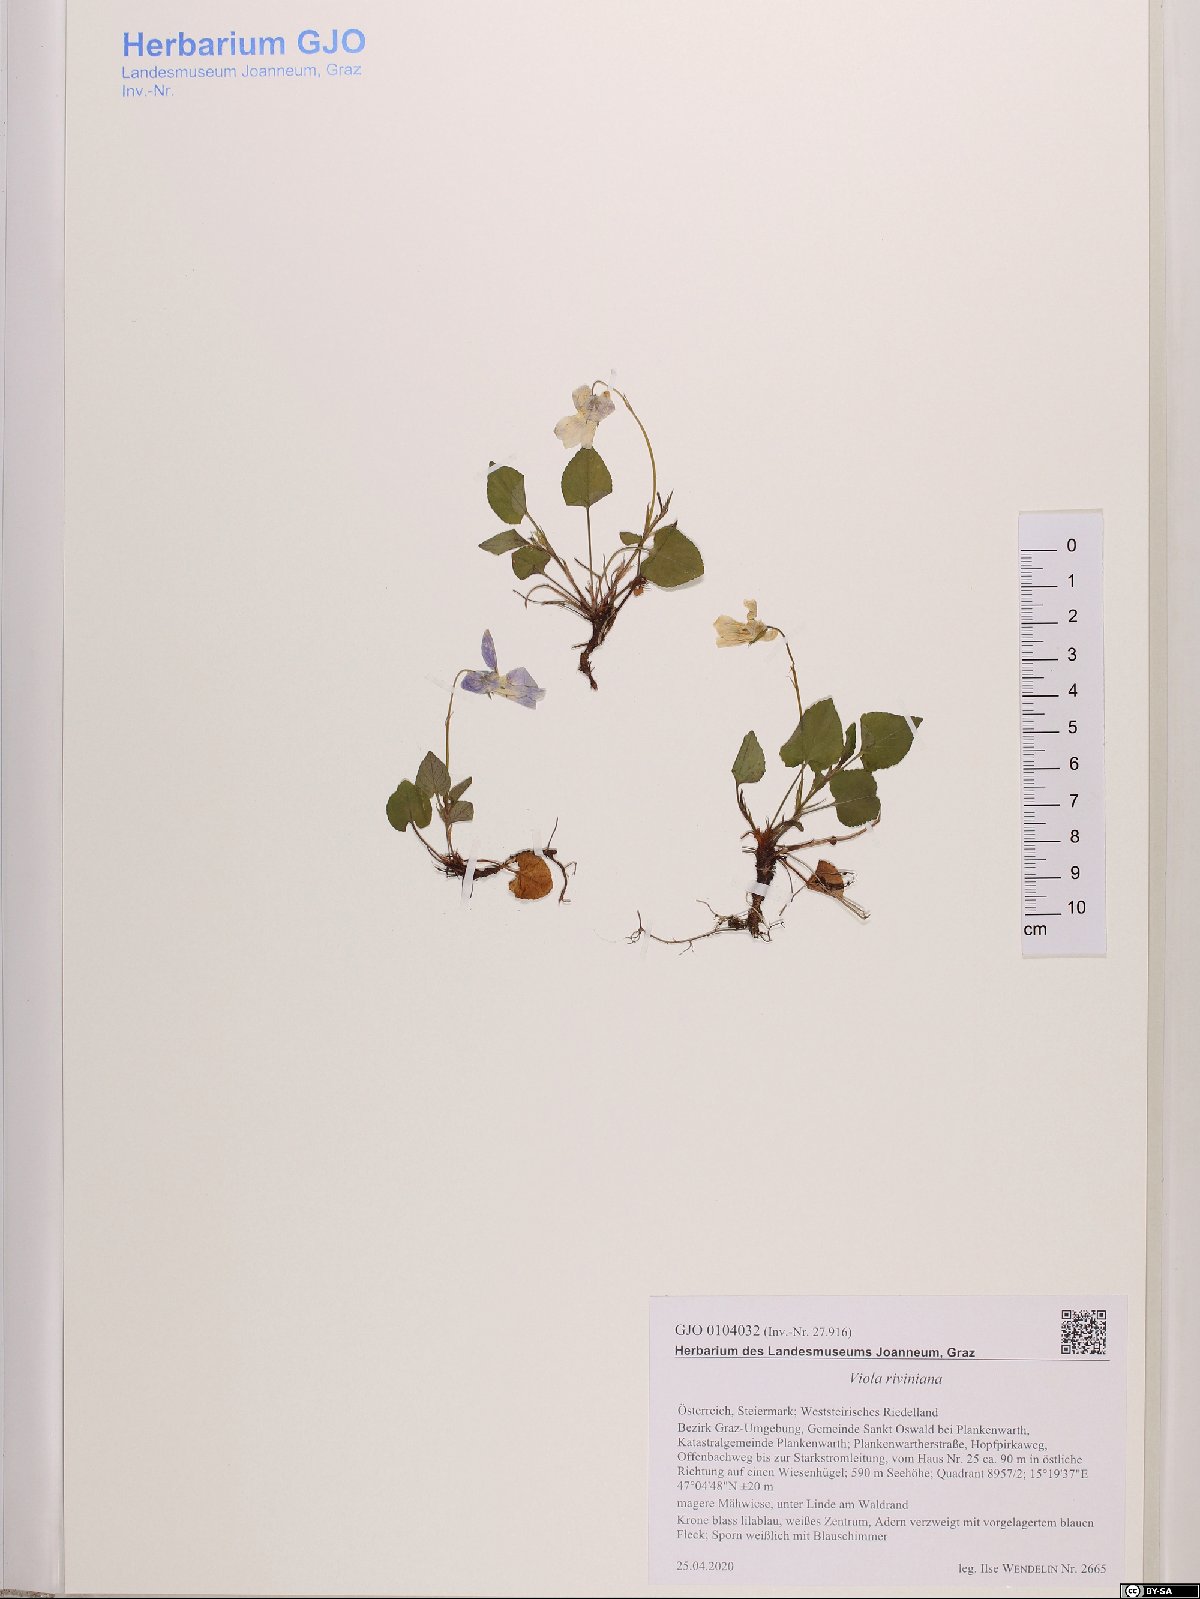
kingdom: Plantae
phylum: Tracheophyta
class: Magnoliopsida
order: Malpighiales
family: Violaceae
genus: Viola
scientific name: Viola riviniana
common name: Common dog-violet
